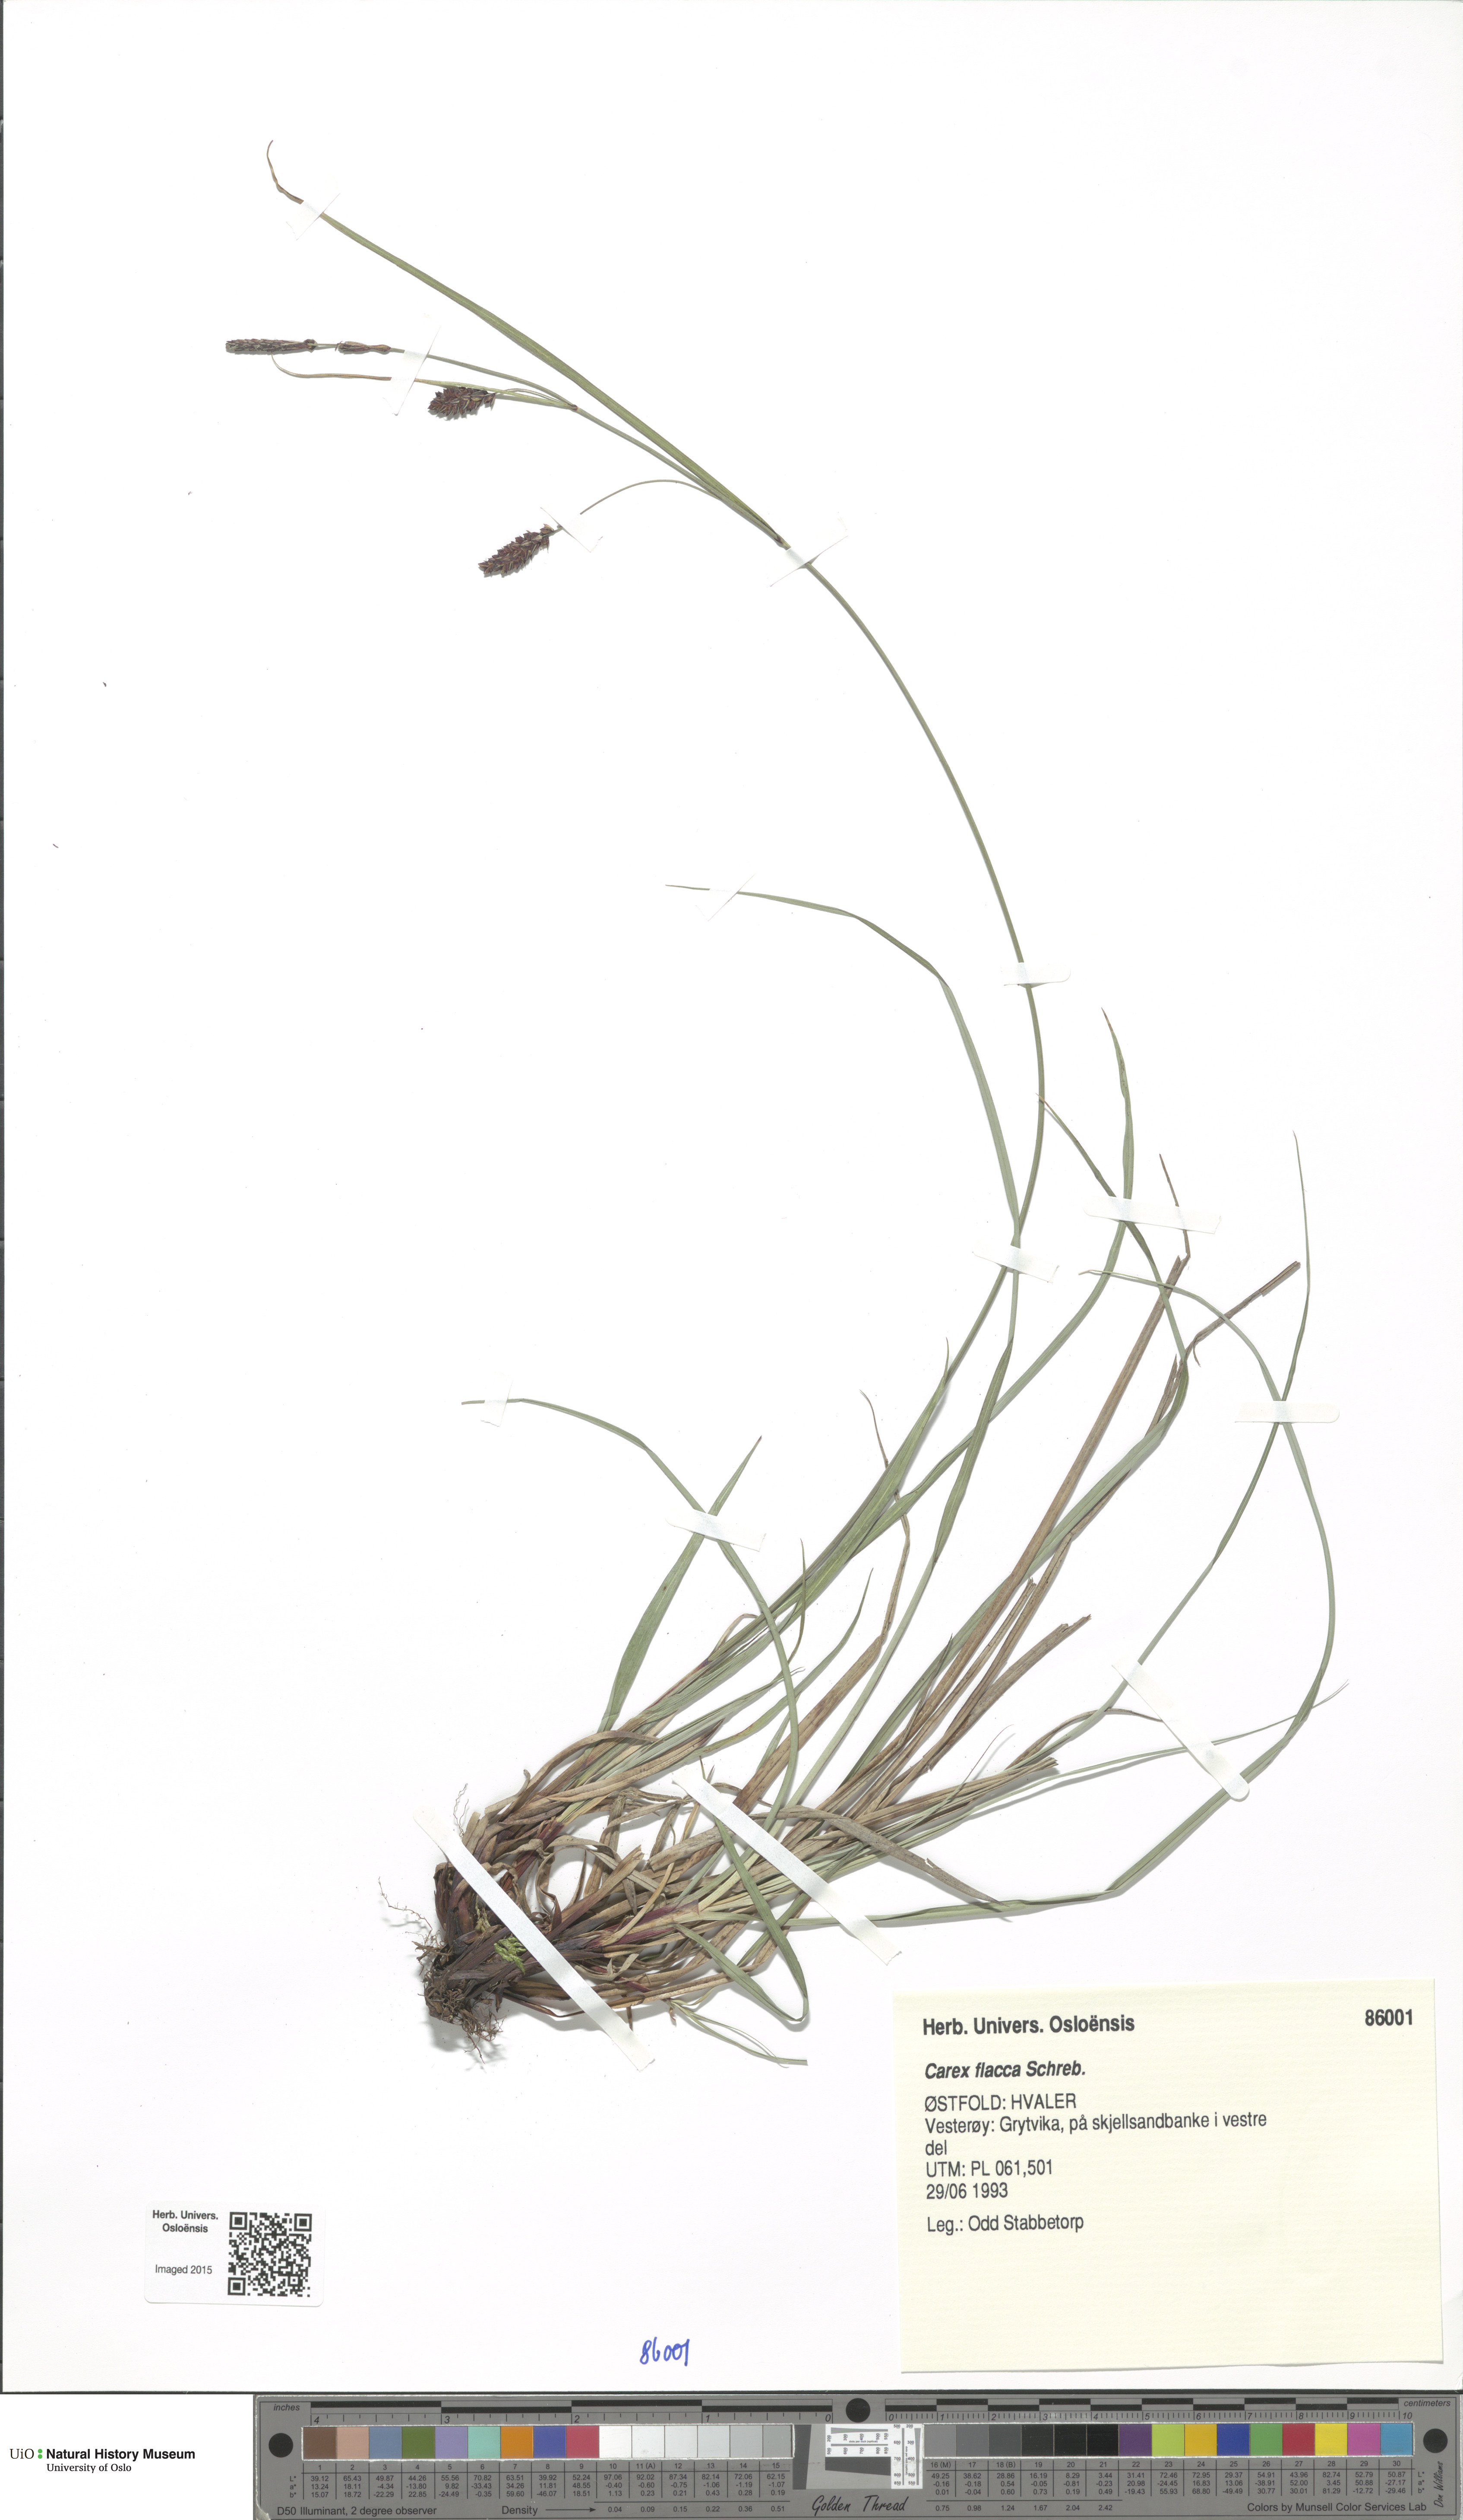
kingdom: Plantae
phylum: Tracheophyta
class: Liliopsida
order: Poales
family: Cyperaceae
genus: Carex
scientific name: Carex flacca
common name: Glaucous sedge
